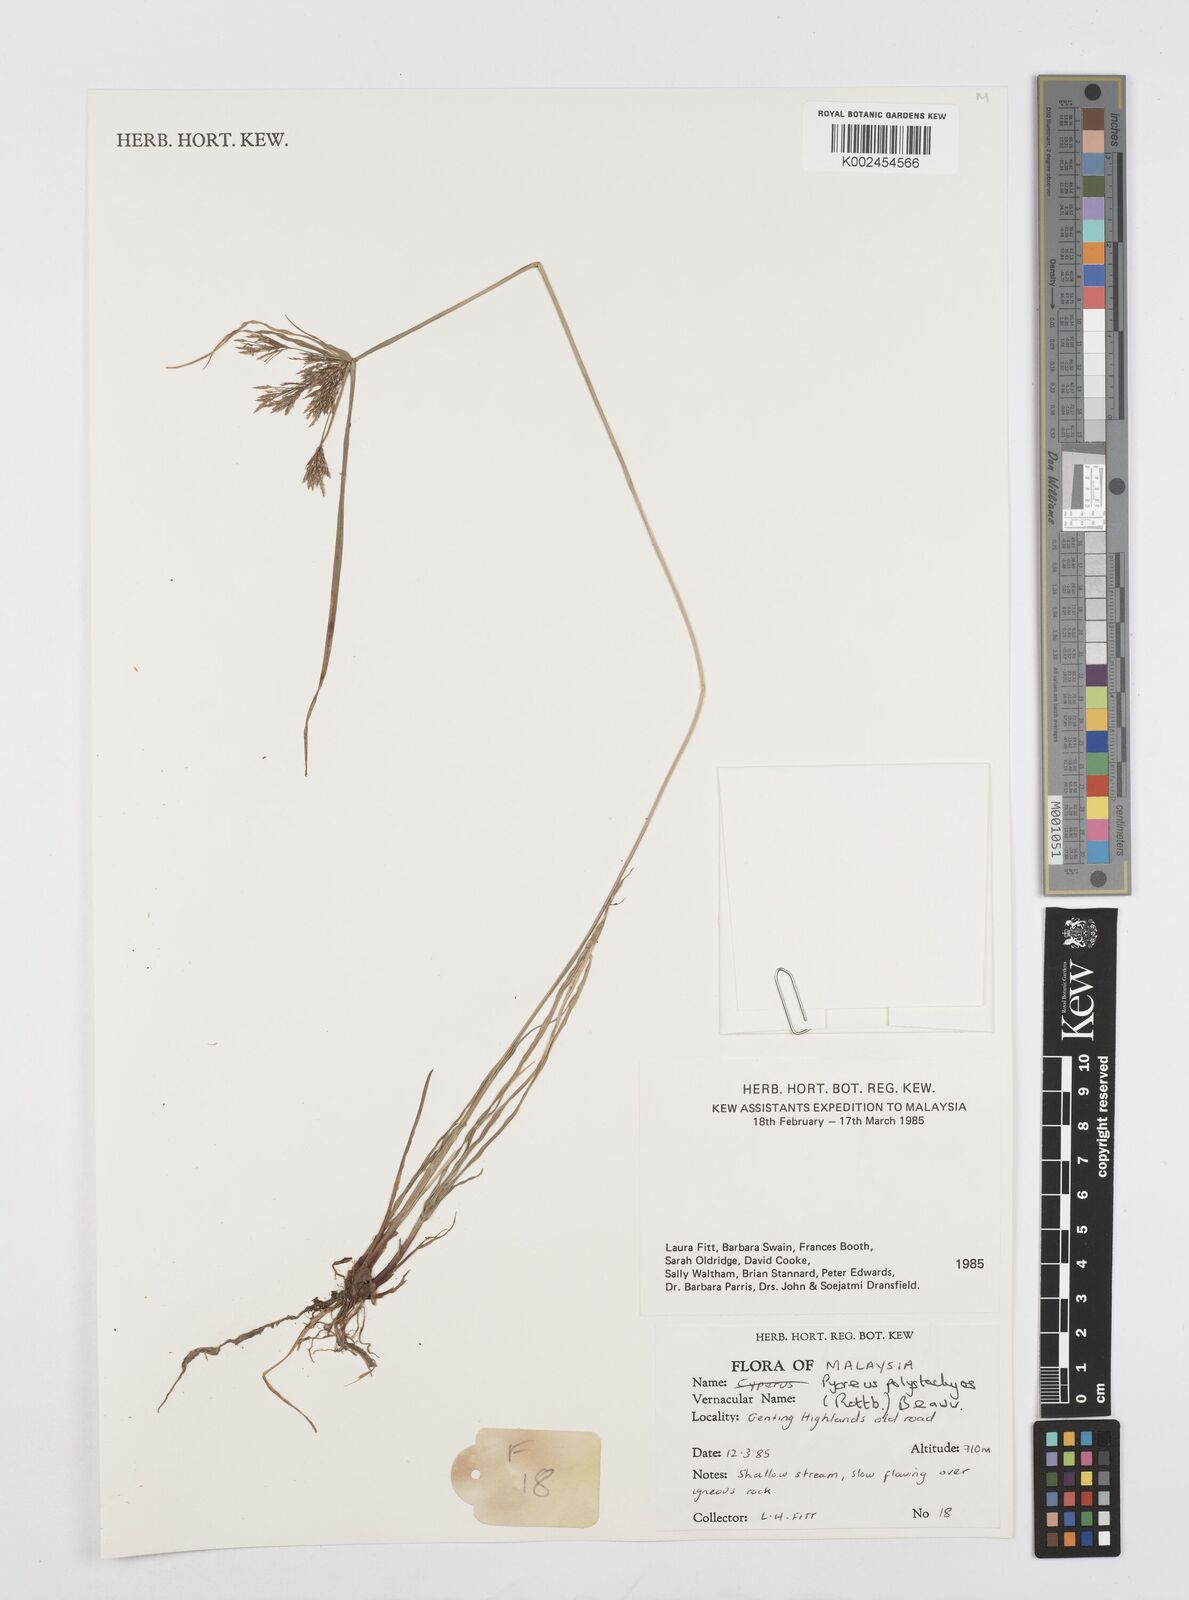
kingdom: Plantae
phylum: Tracheophyta
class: Liliopsida
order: Poales
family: Cyperaceae
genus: Cyperus
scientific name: Cyperus polystachyos
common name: Bunchy flat sedge
